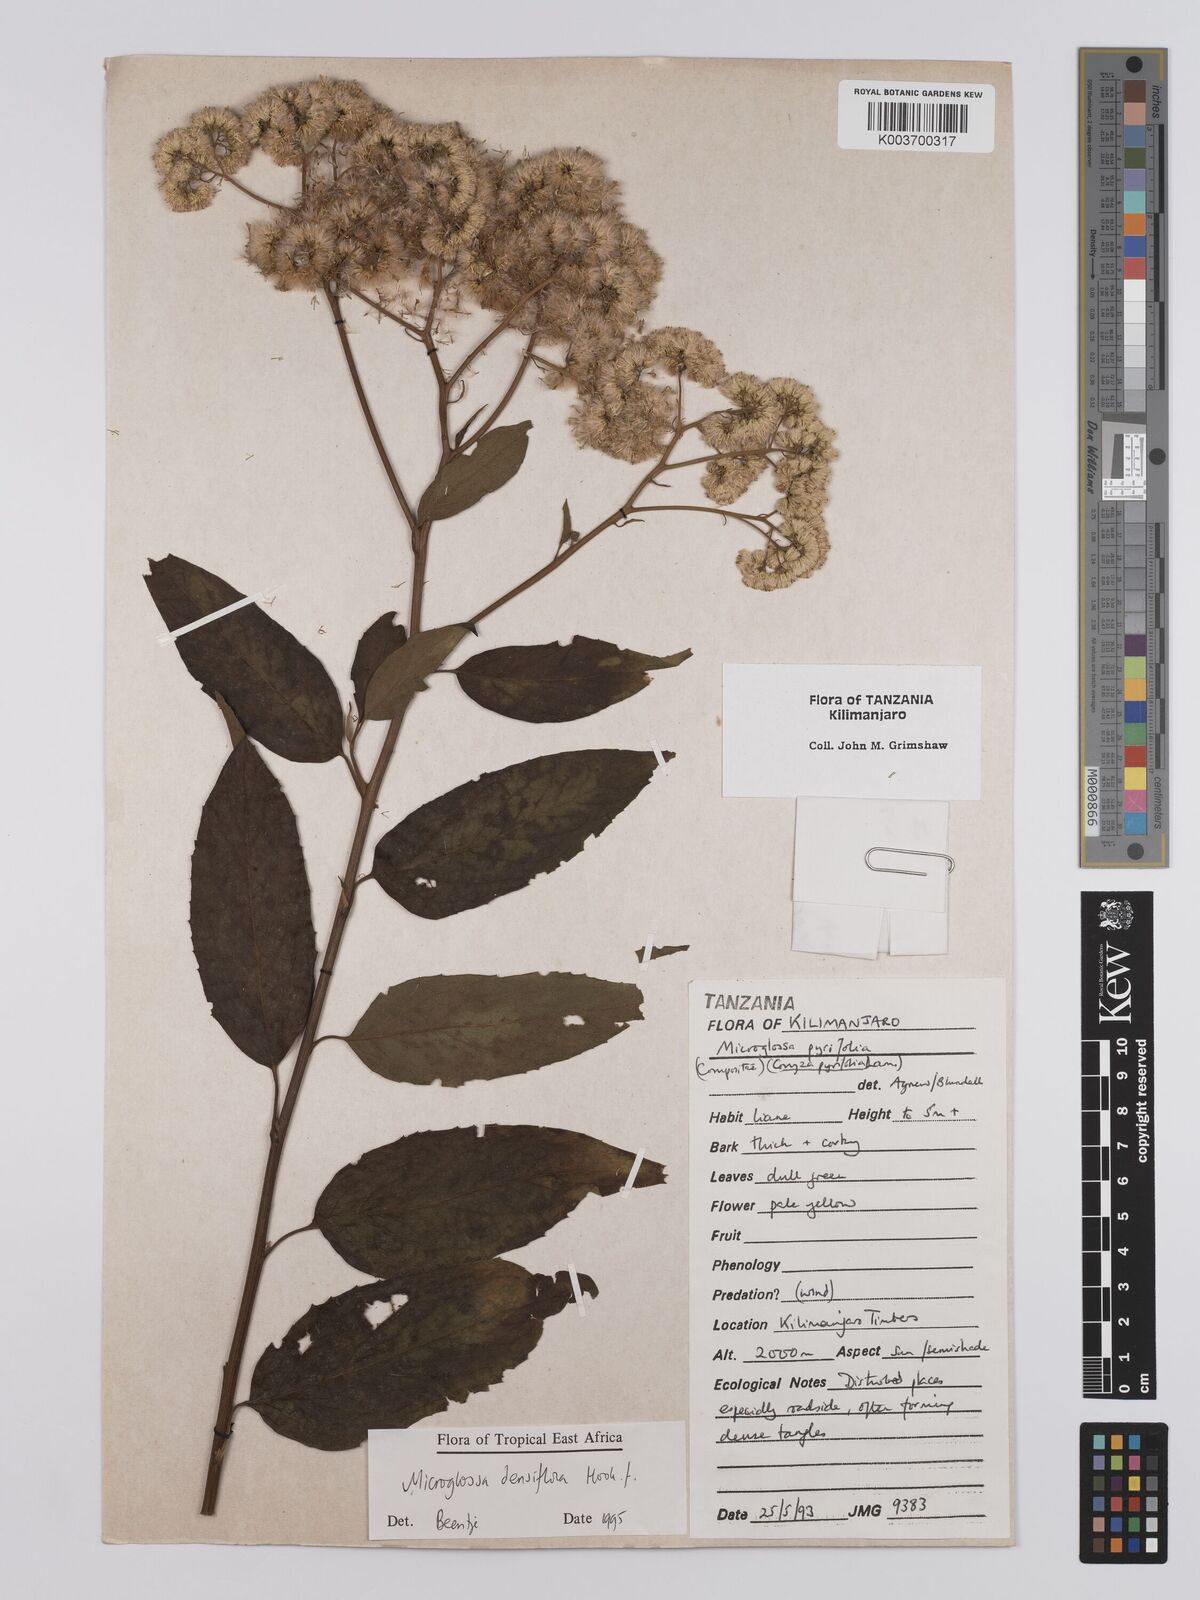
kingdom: Plantae
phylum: Tracheophyta
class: Magnoliopsida
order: Asterales
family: Asteraceae
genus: Microglossa
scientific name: Microglossa densiflora
